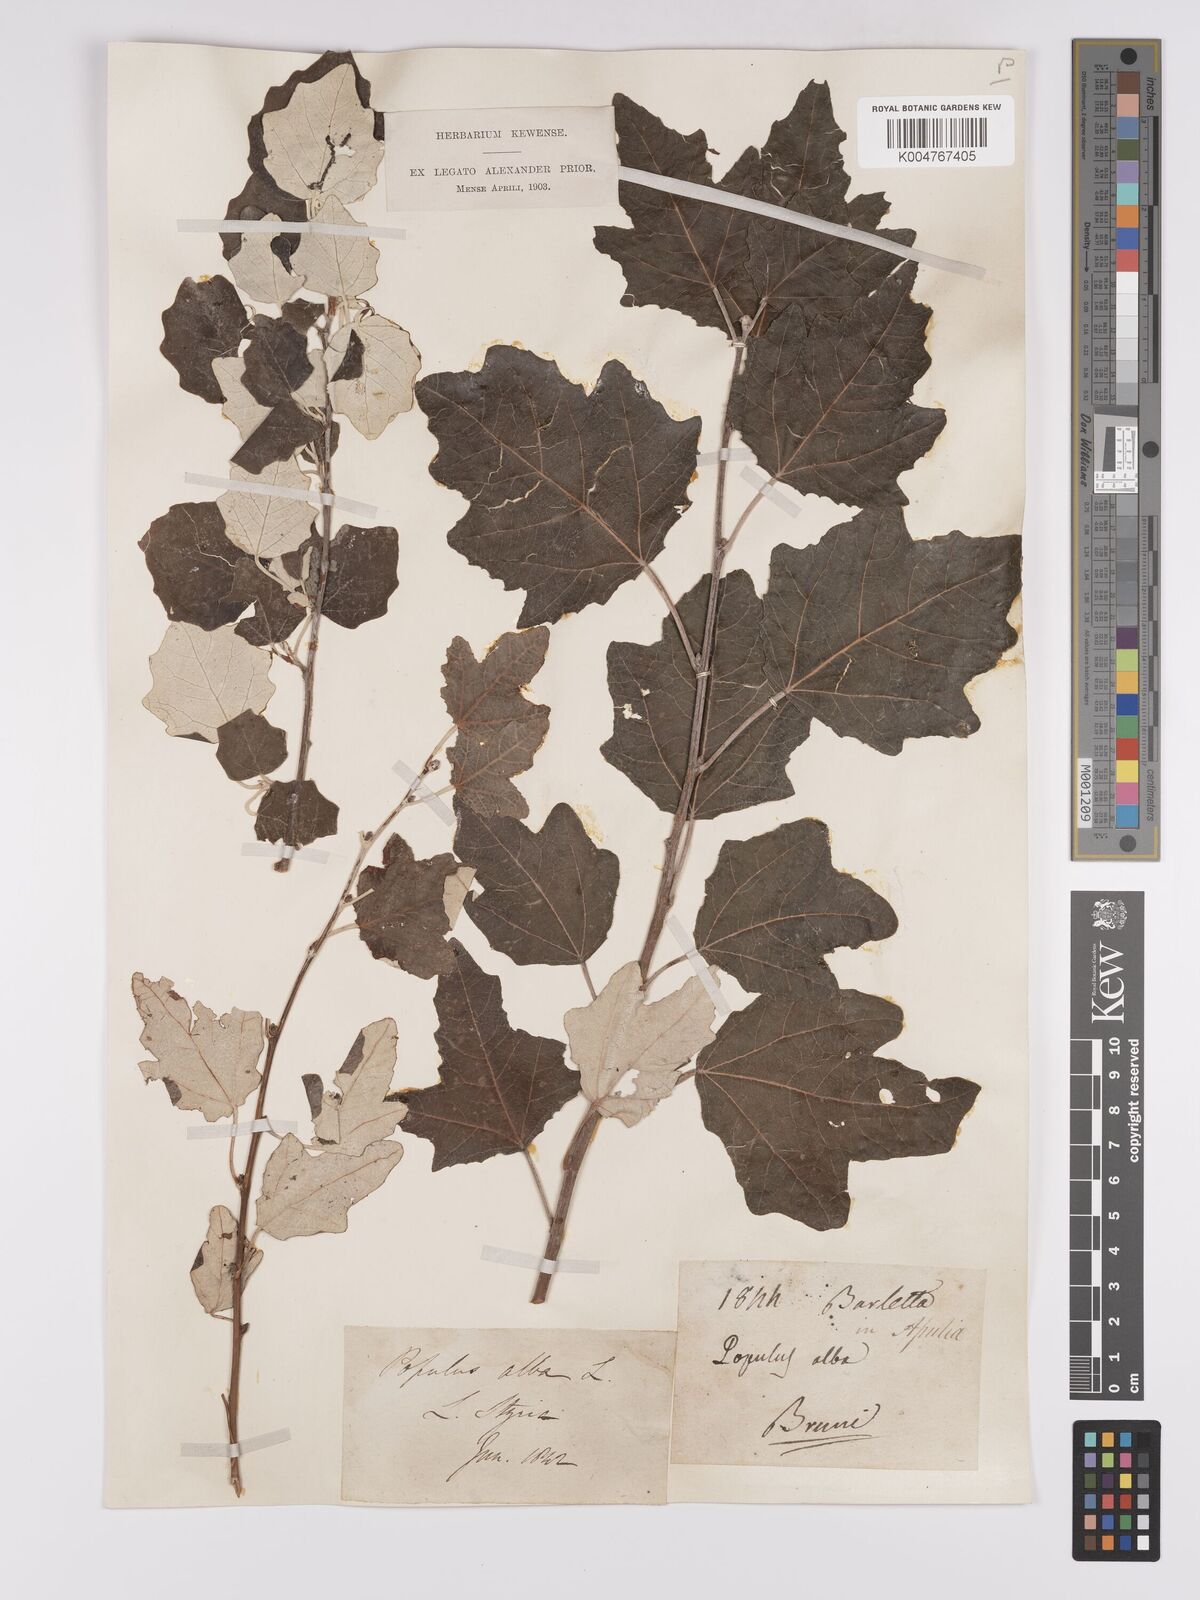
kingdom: Plantae
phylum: Tracheophyta
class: Magnoliopsida
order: Malpighiales
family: Salicaceae
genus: Populus
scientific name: Populus alba
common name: White poplar
